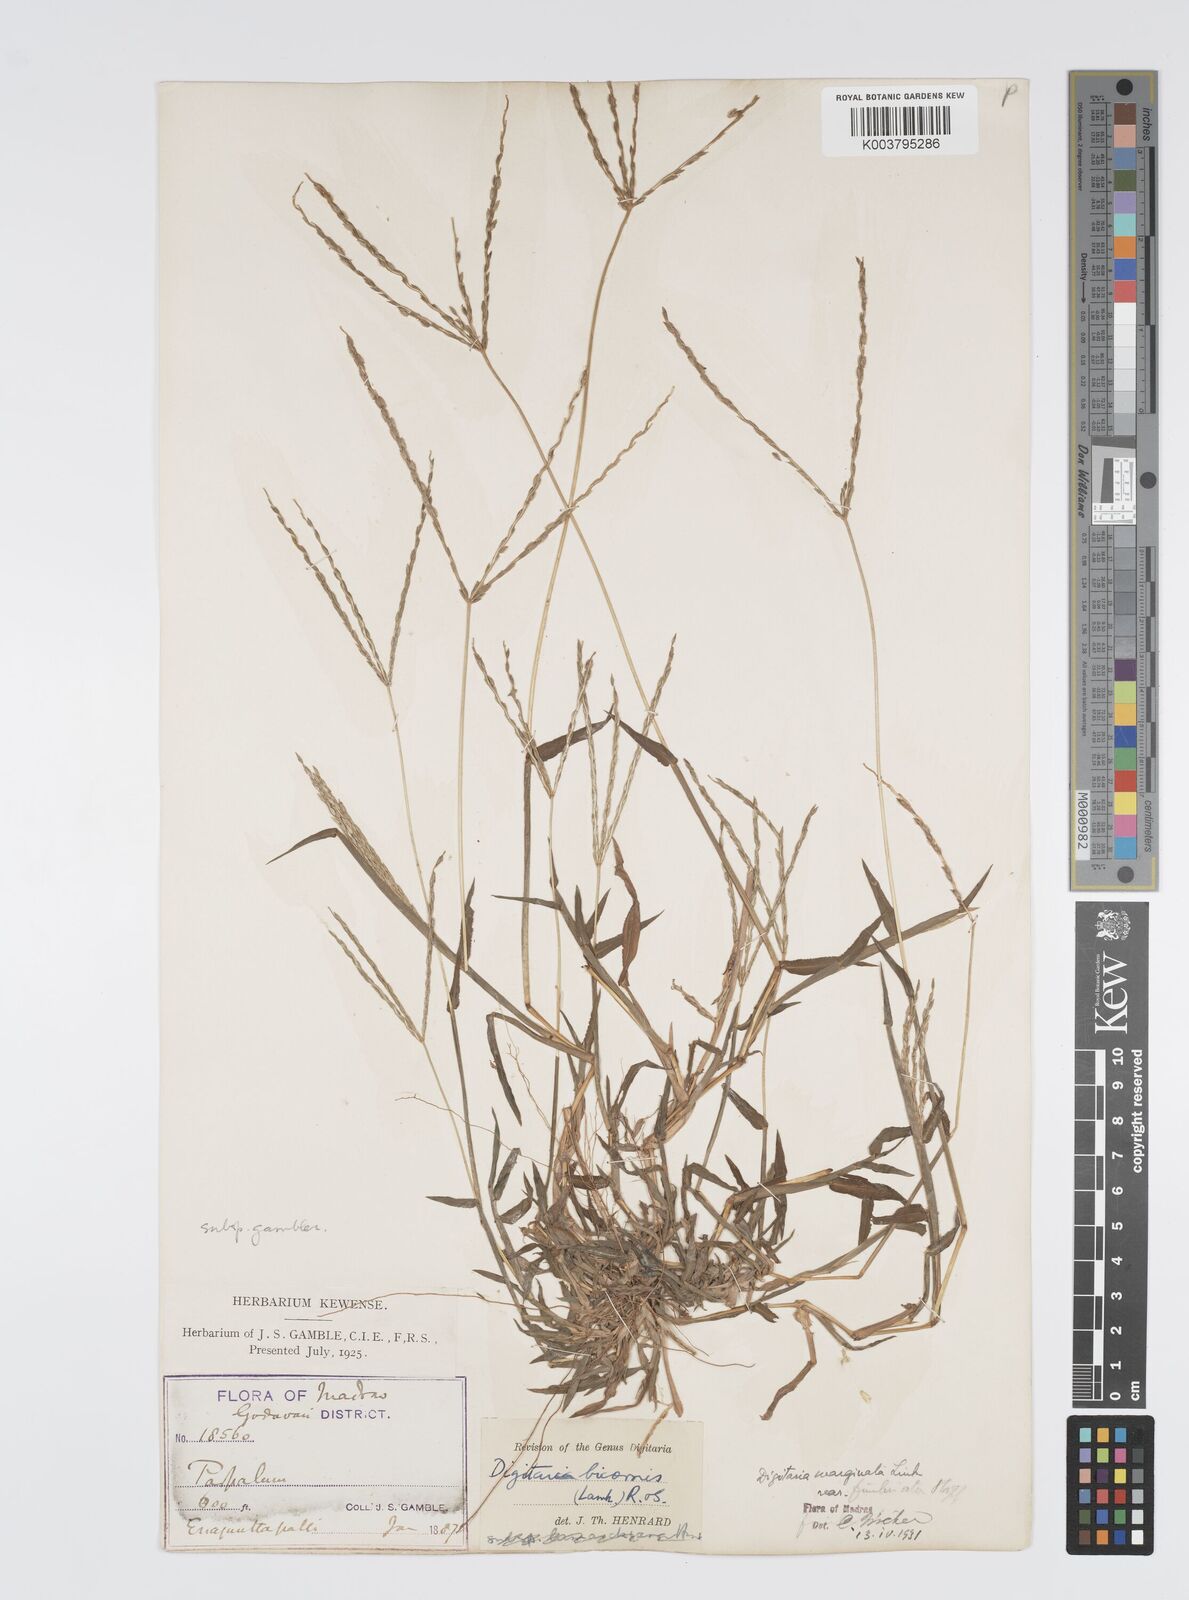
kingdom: Plantae
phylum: Tracheophyta
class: Liliopsida
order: Poales
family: Poaceae
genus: Digitaria
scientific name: Digitaria spec
